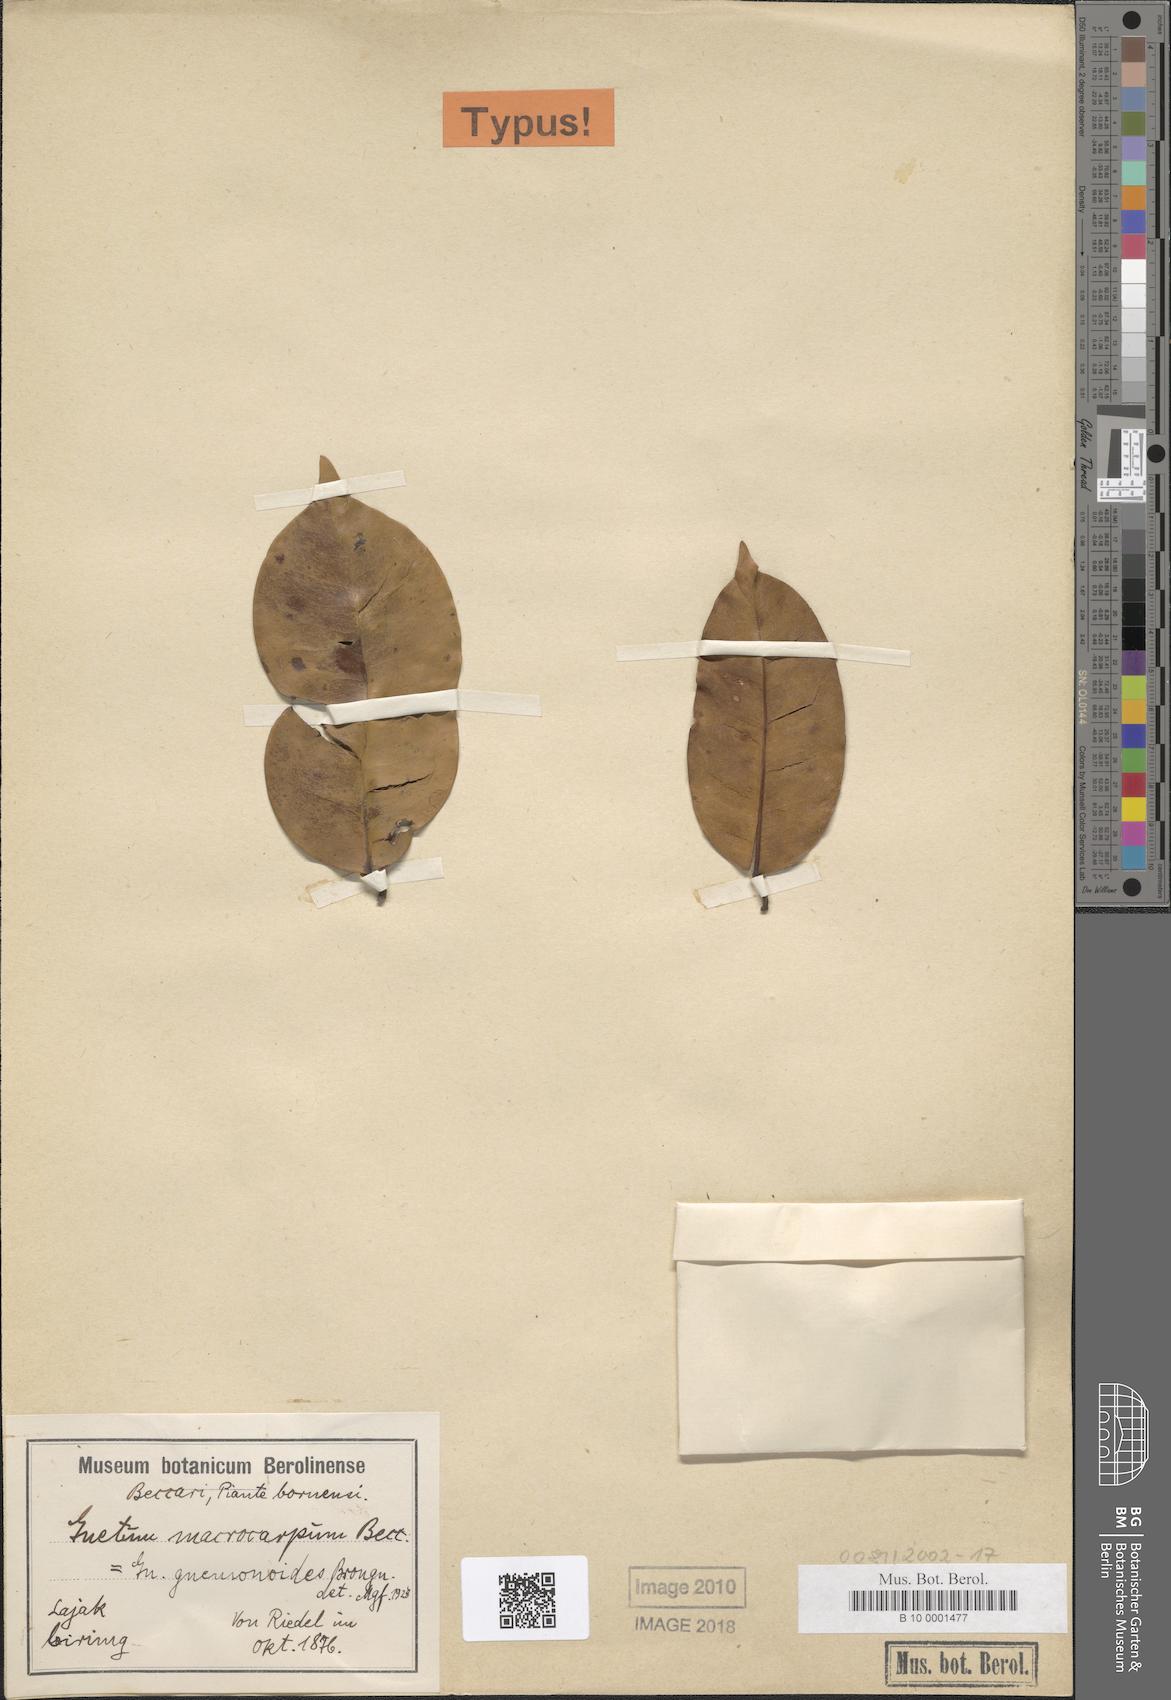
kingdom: Plantae
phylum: Tracheophyta
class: Gnetopsida
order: Gnetales
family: Gnetaceae
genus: Gnetum
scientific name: Gnetum gnemonoides
